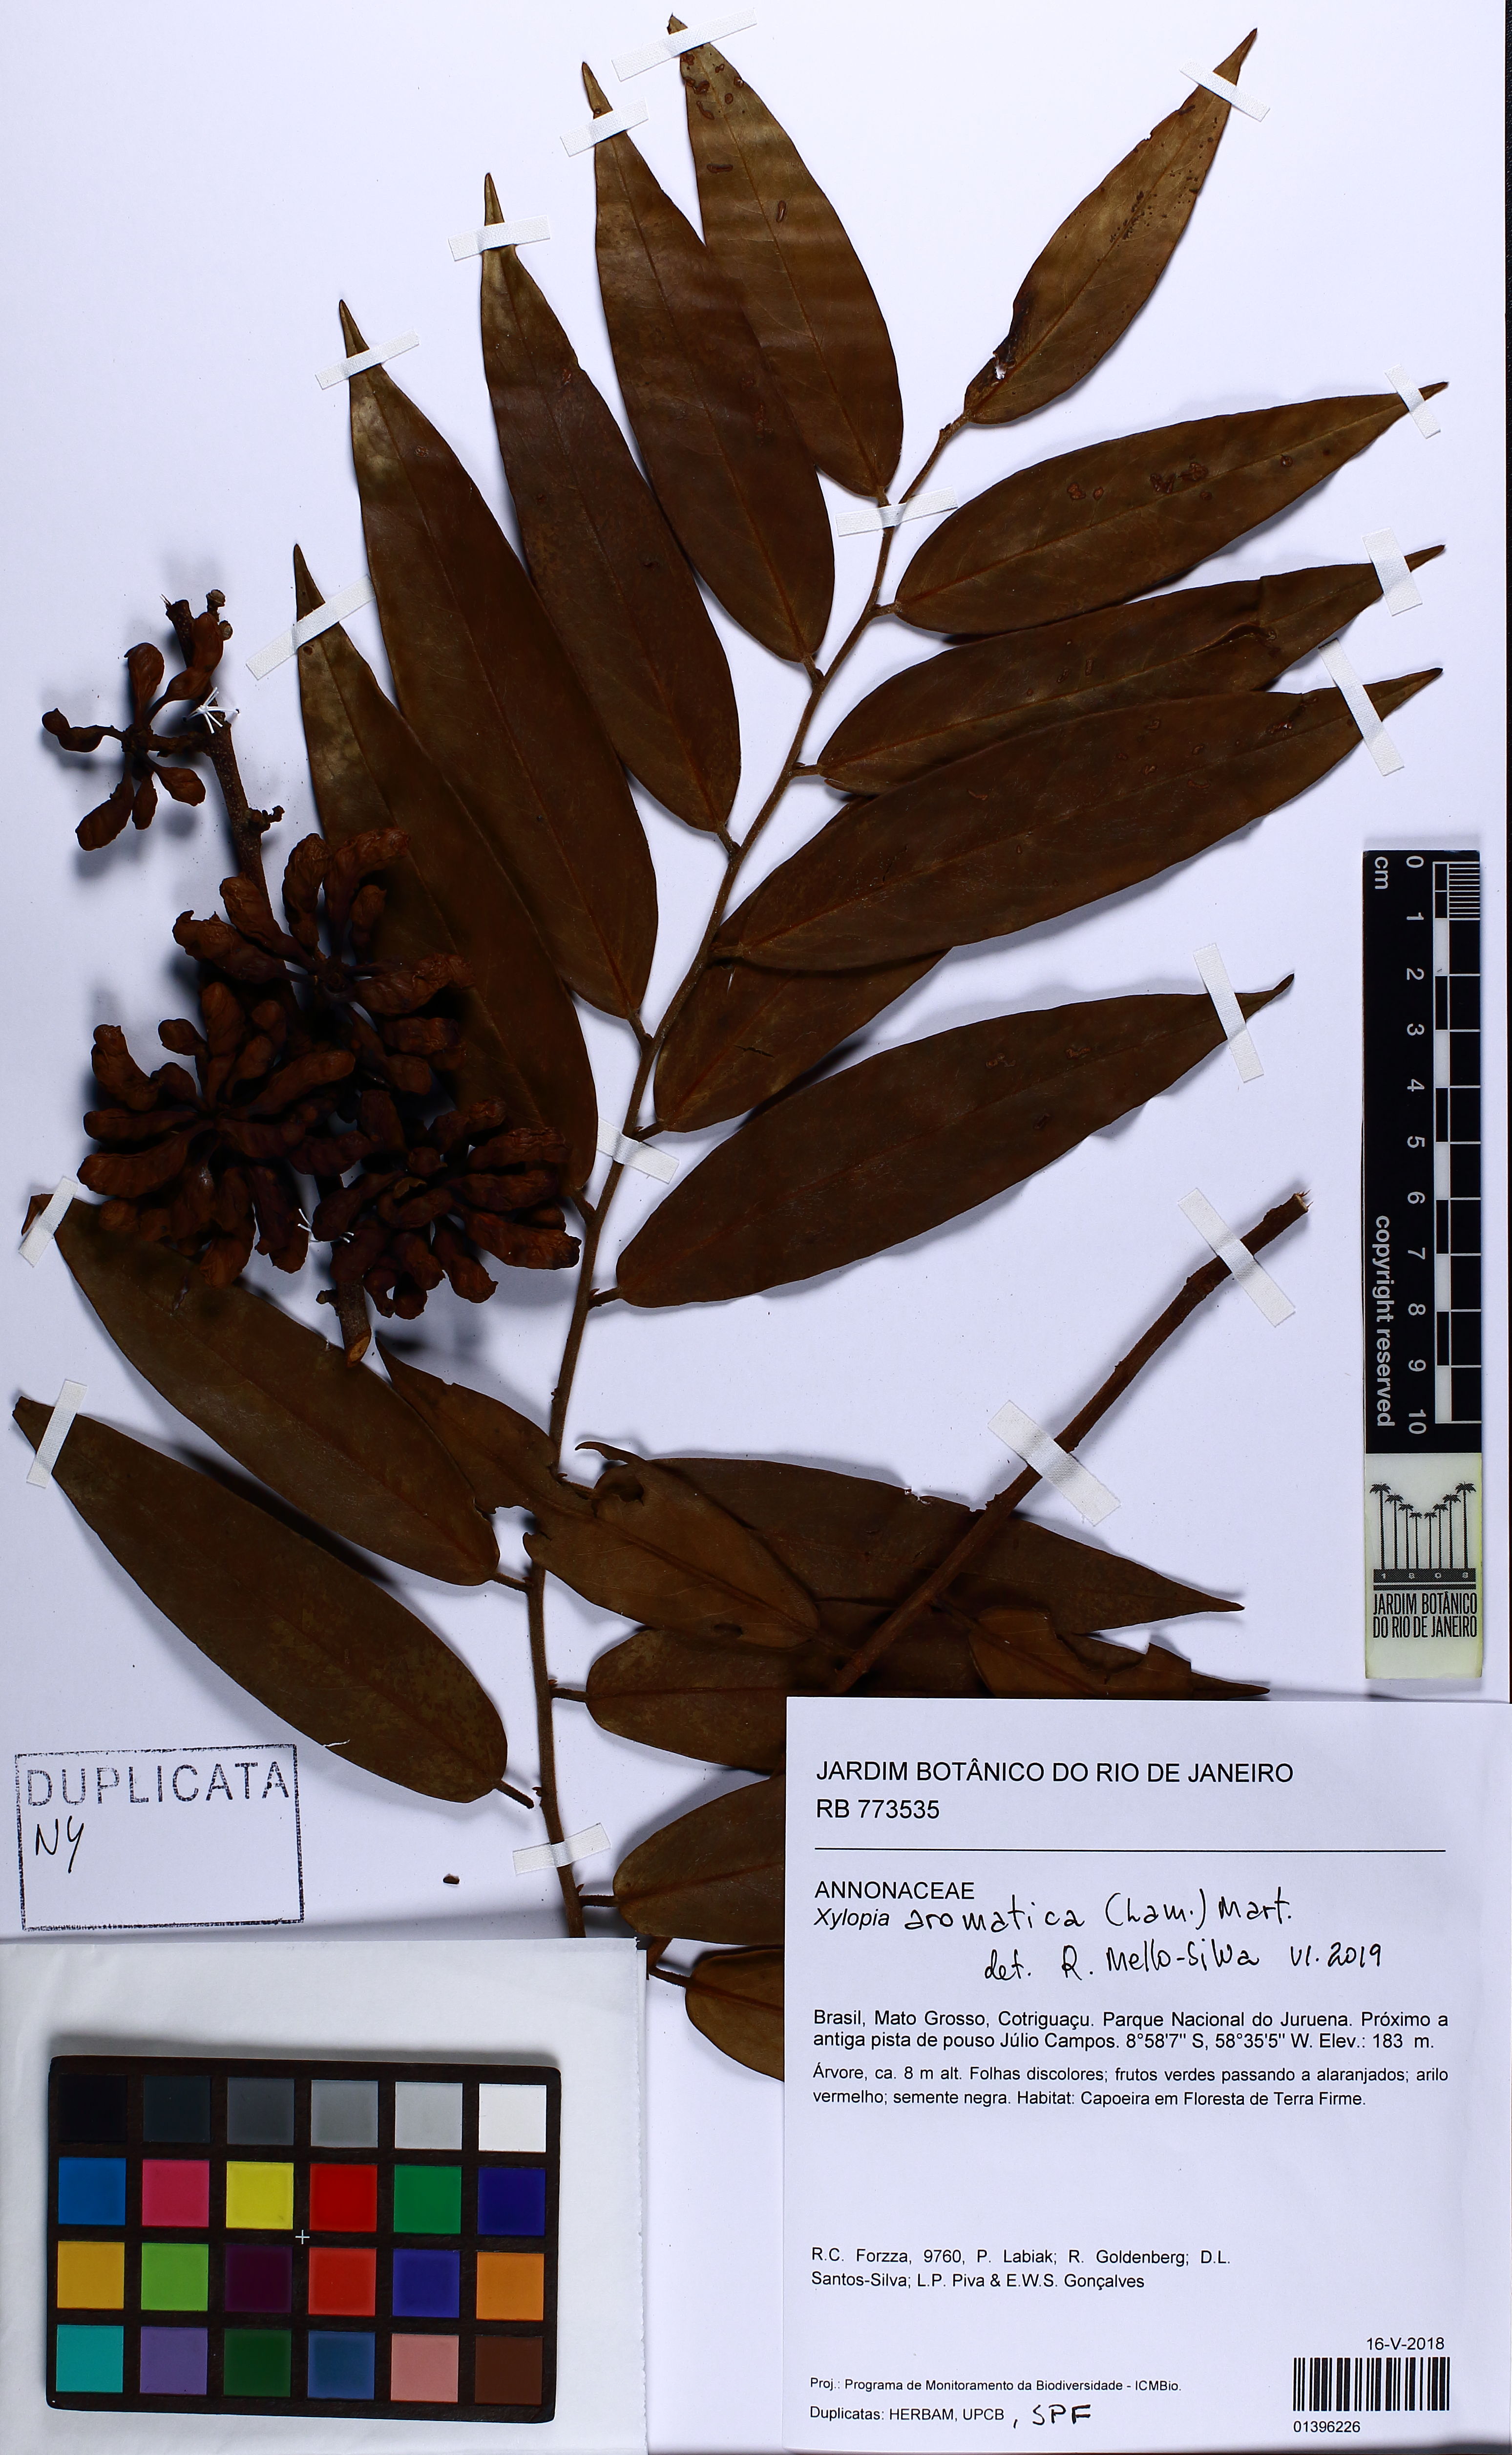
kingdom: Plantae
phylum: Tracheophyta
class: Magnoliopsida
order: Magnoliales
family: Annonaceae
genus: Xylopia
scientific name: Xylopia aromatica
